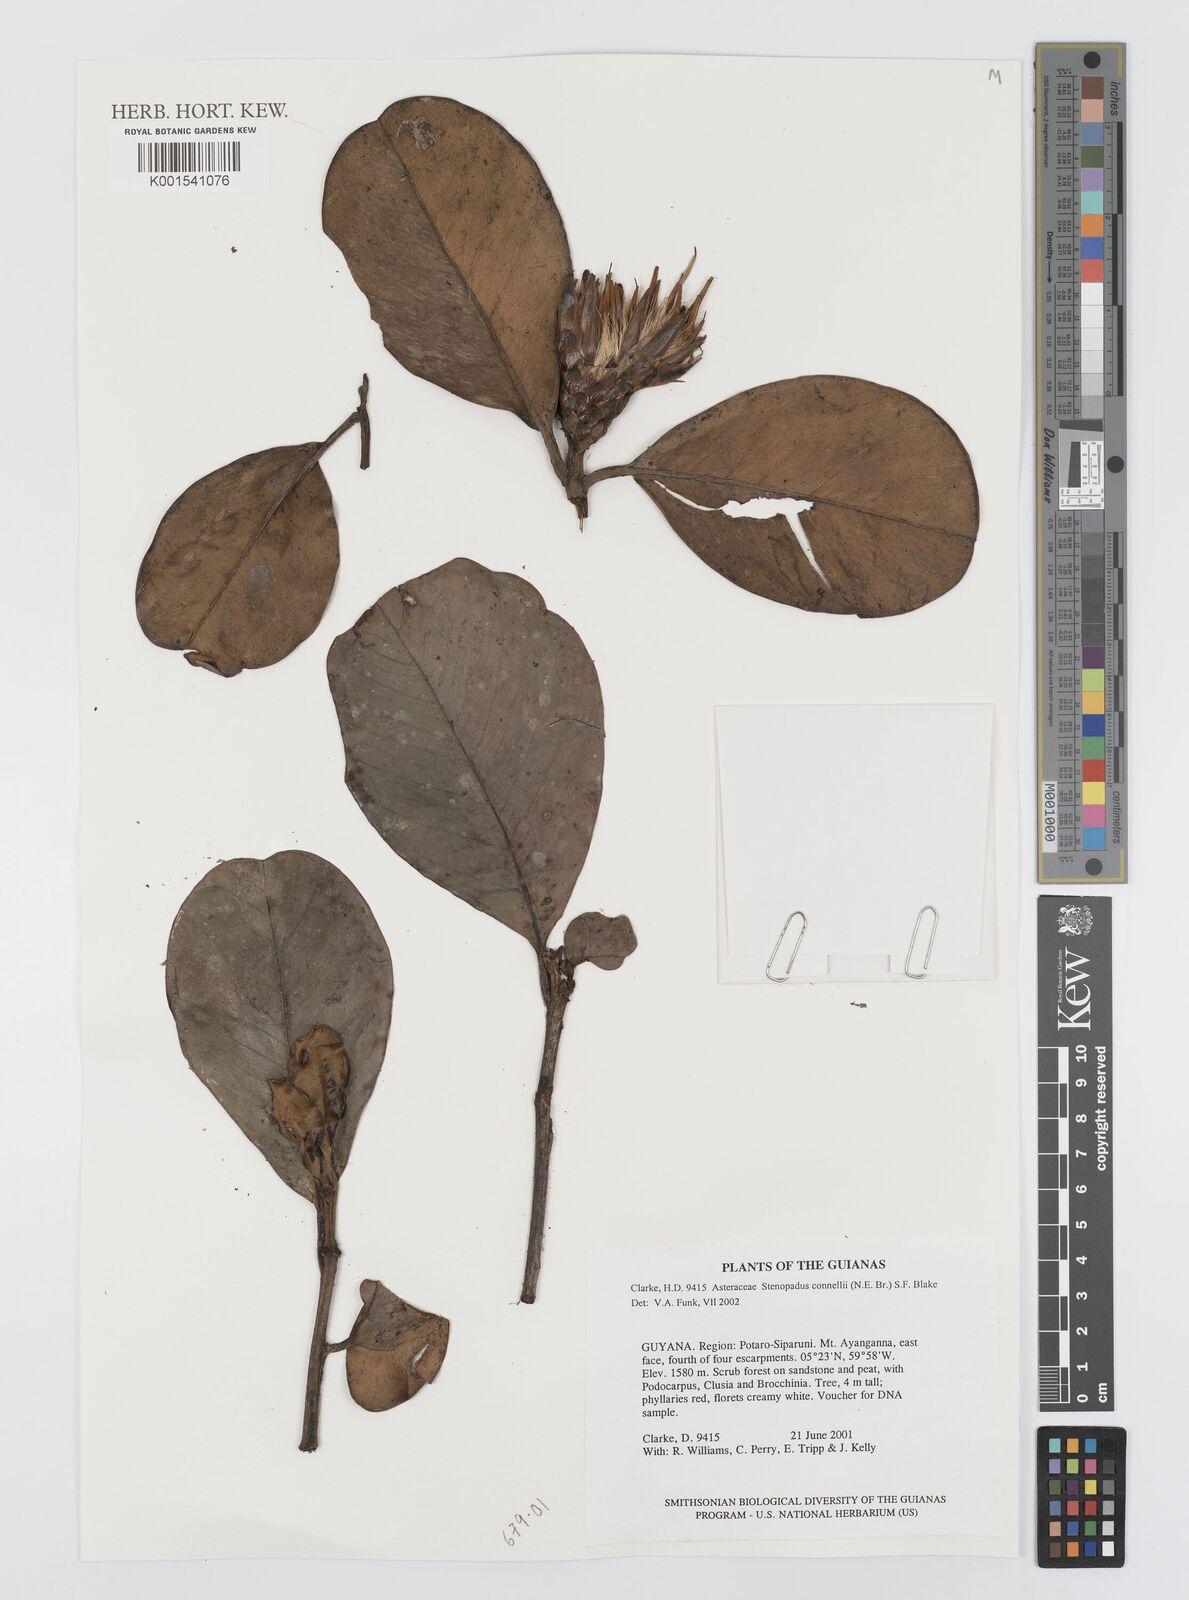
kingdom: Plantae
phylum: Tracheophyta
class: Magnoliopsida
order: Asterales
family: Asteraceae
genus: Stenopadus
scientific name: Stenopadus connellii
